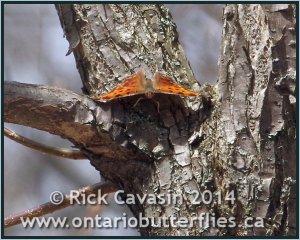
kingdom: Animalia
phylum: Arthropoda
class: Insecta
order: Lepidoptera
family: Nymphalidae
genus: Polygonia
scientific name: Polygonia comma
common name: Eastern Comma
